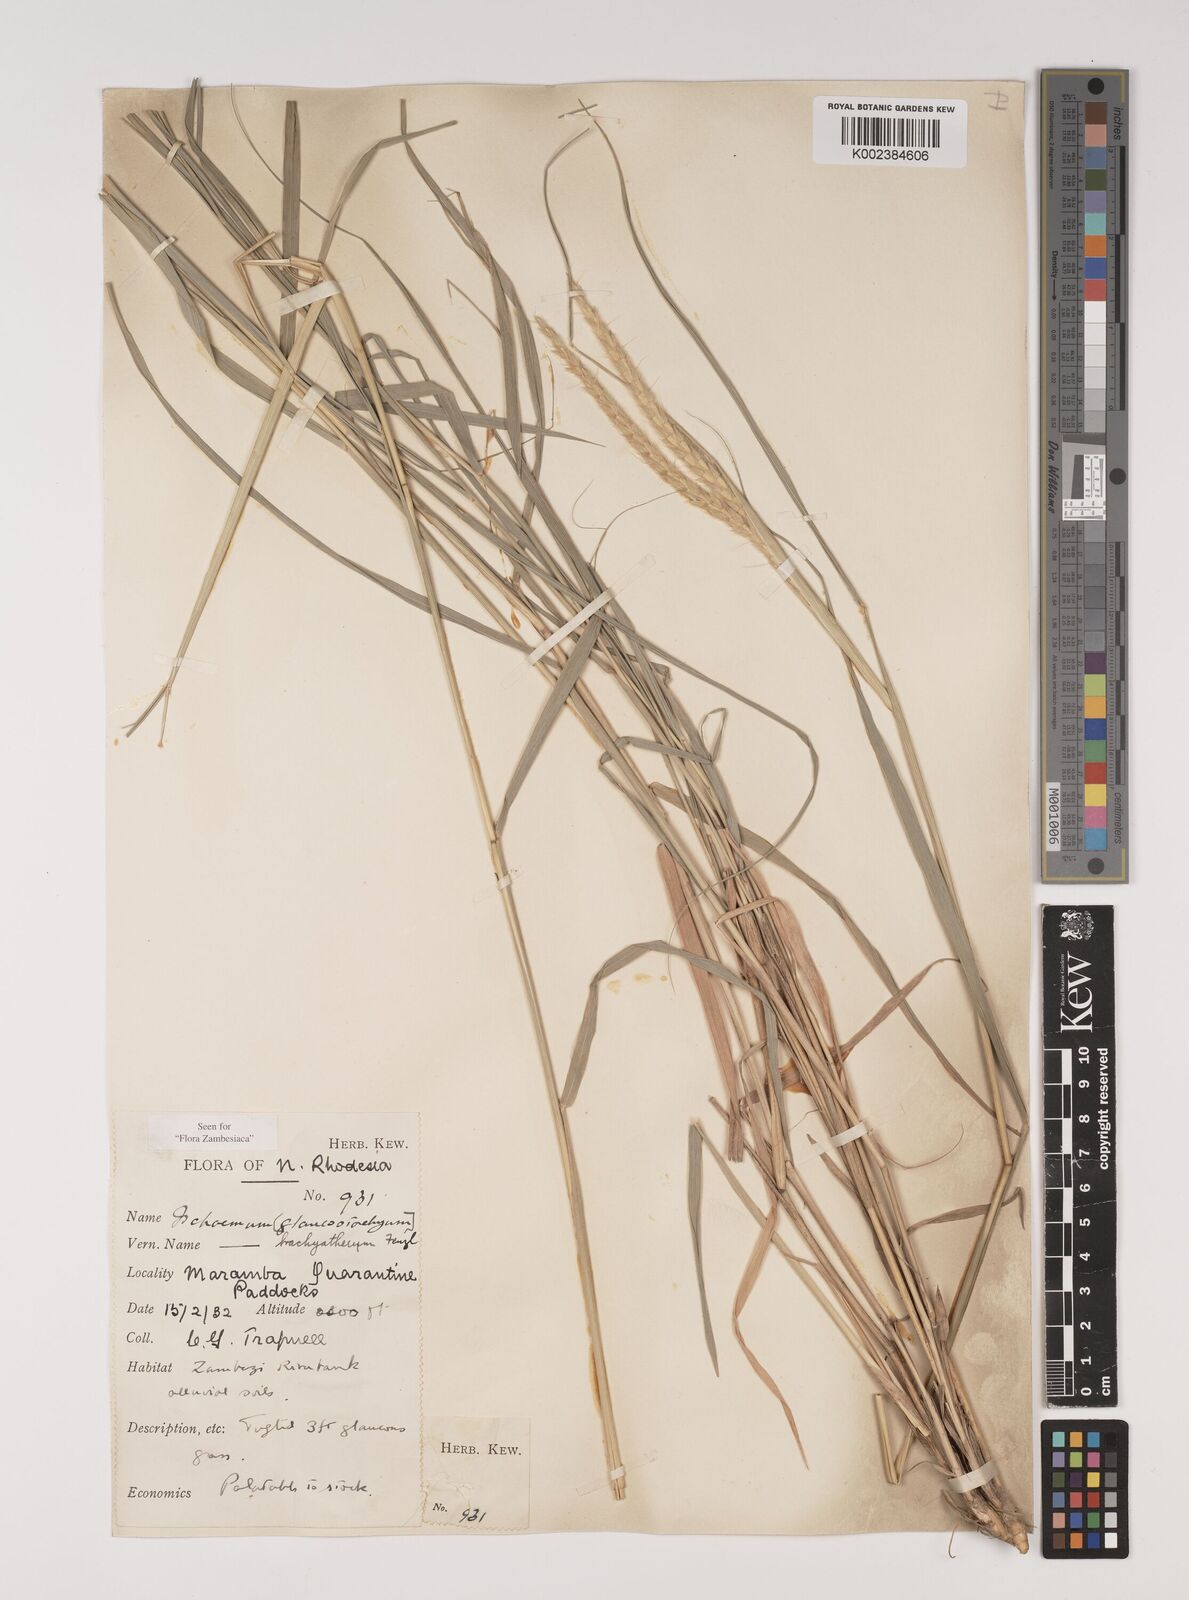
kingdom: Plantae
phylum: Tracheophyta
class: Liliopsida
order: Poales
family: Poaceae
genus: Ischaemum
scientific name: Ischaemum afrum
